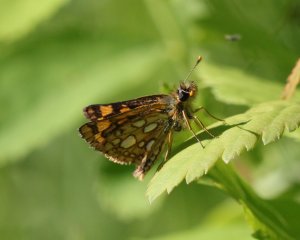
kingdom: Animalia
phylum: Arthropoda
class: Insecta
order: Lepidoptera
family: Hesperiidae
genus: Carterocephalus
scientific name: Carterocephalus palaemon
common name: Chequered Skipper
